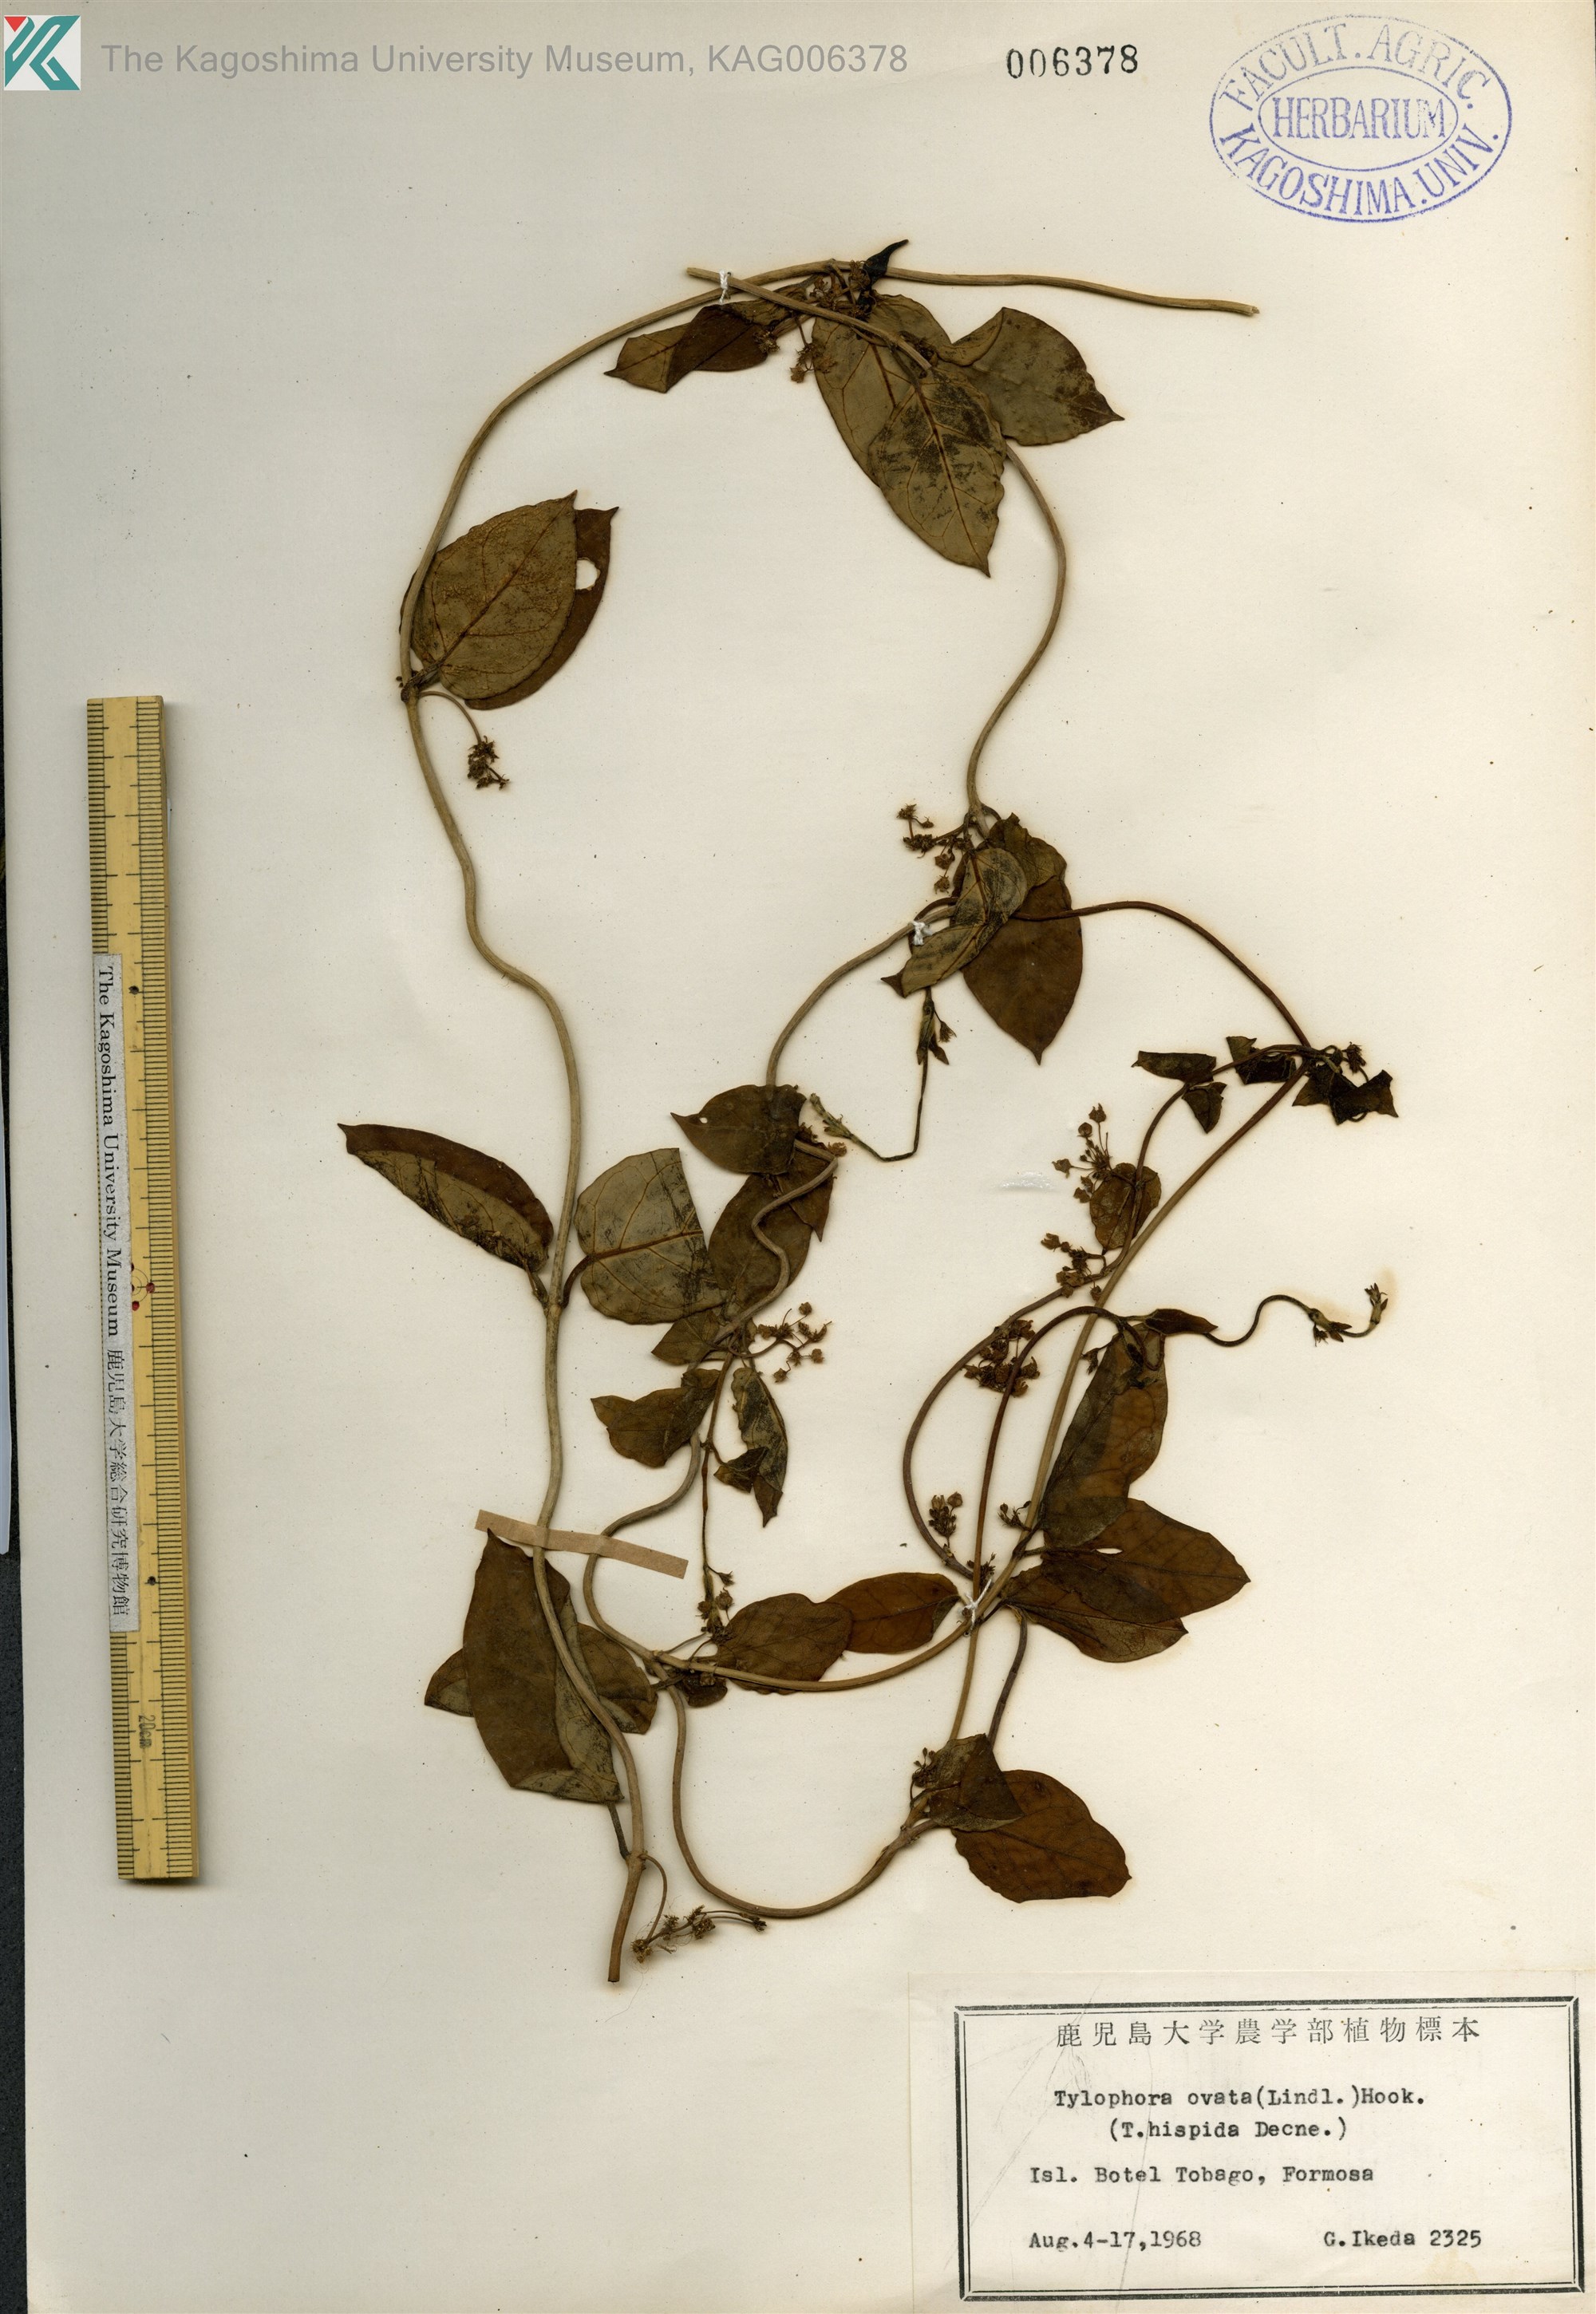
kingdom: Plantae
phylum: Tracheophyta
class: Magnoliopsida
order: Gentianales
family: Apocynaceae
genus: Vincetoxicum
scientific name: Vincetoxicum hirsutum
